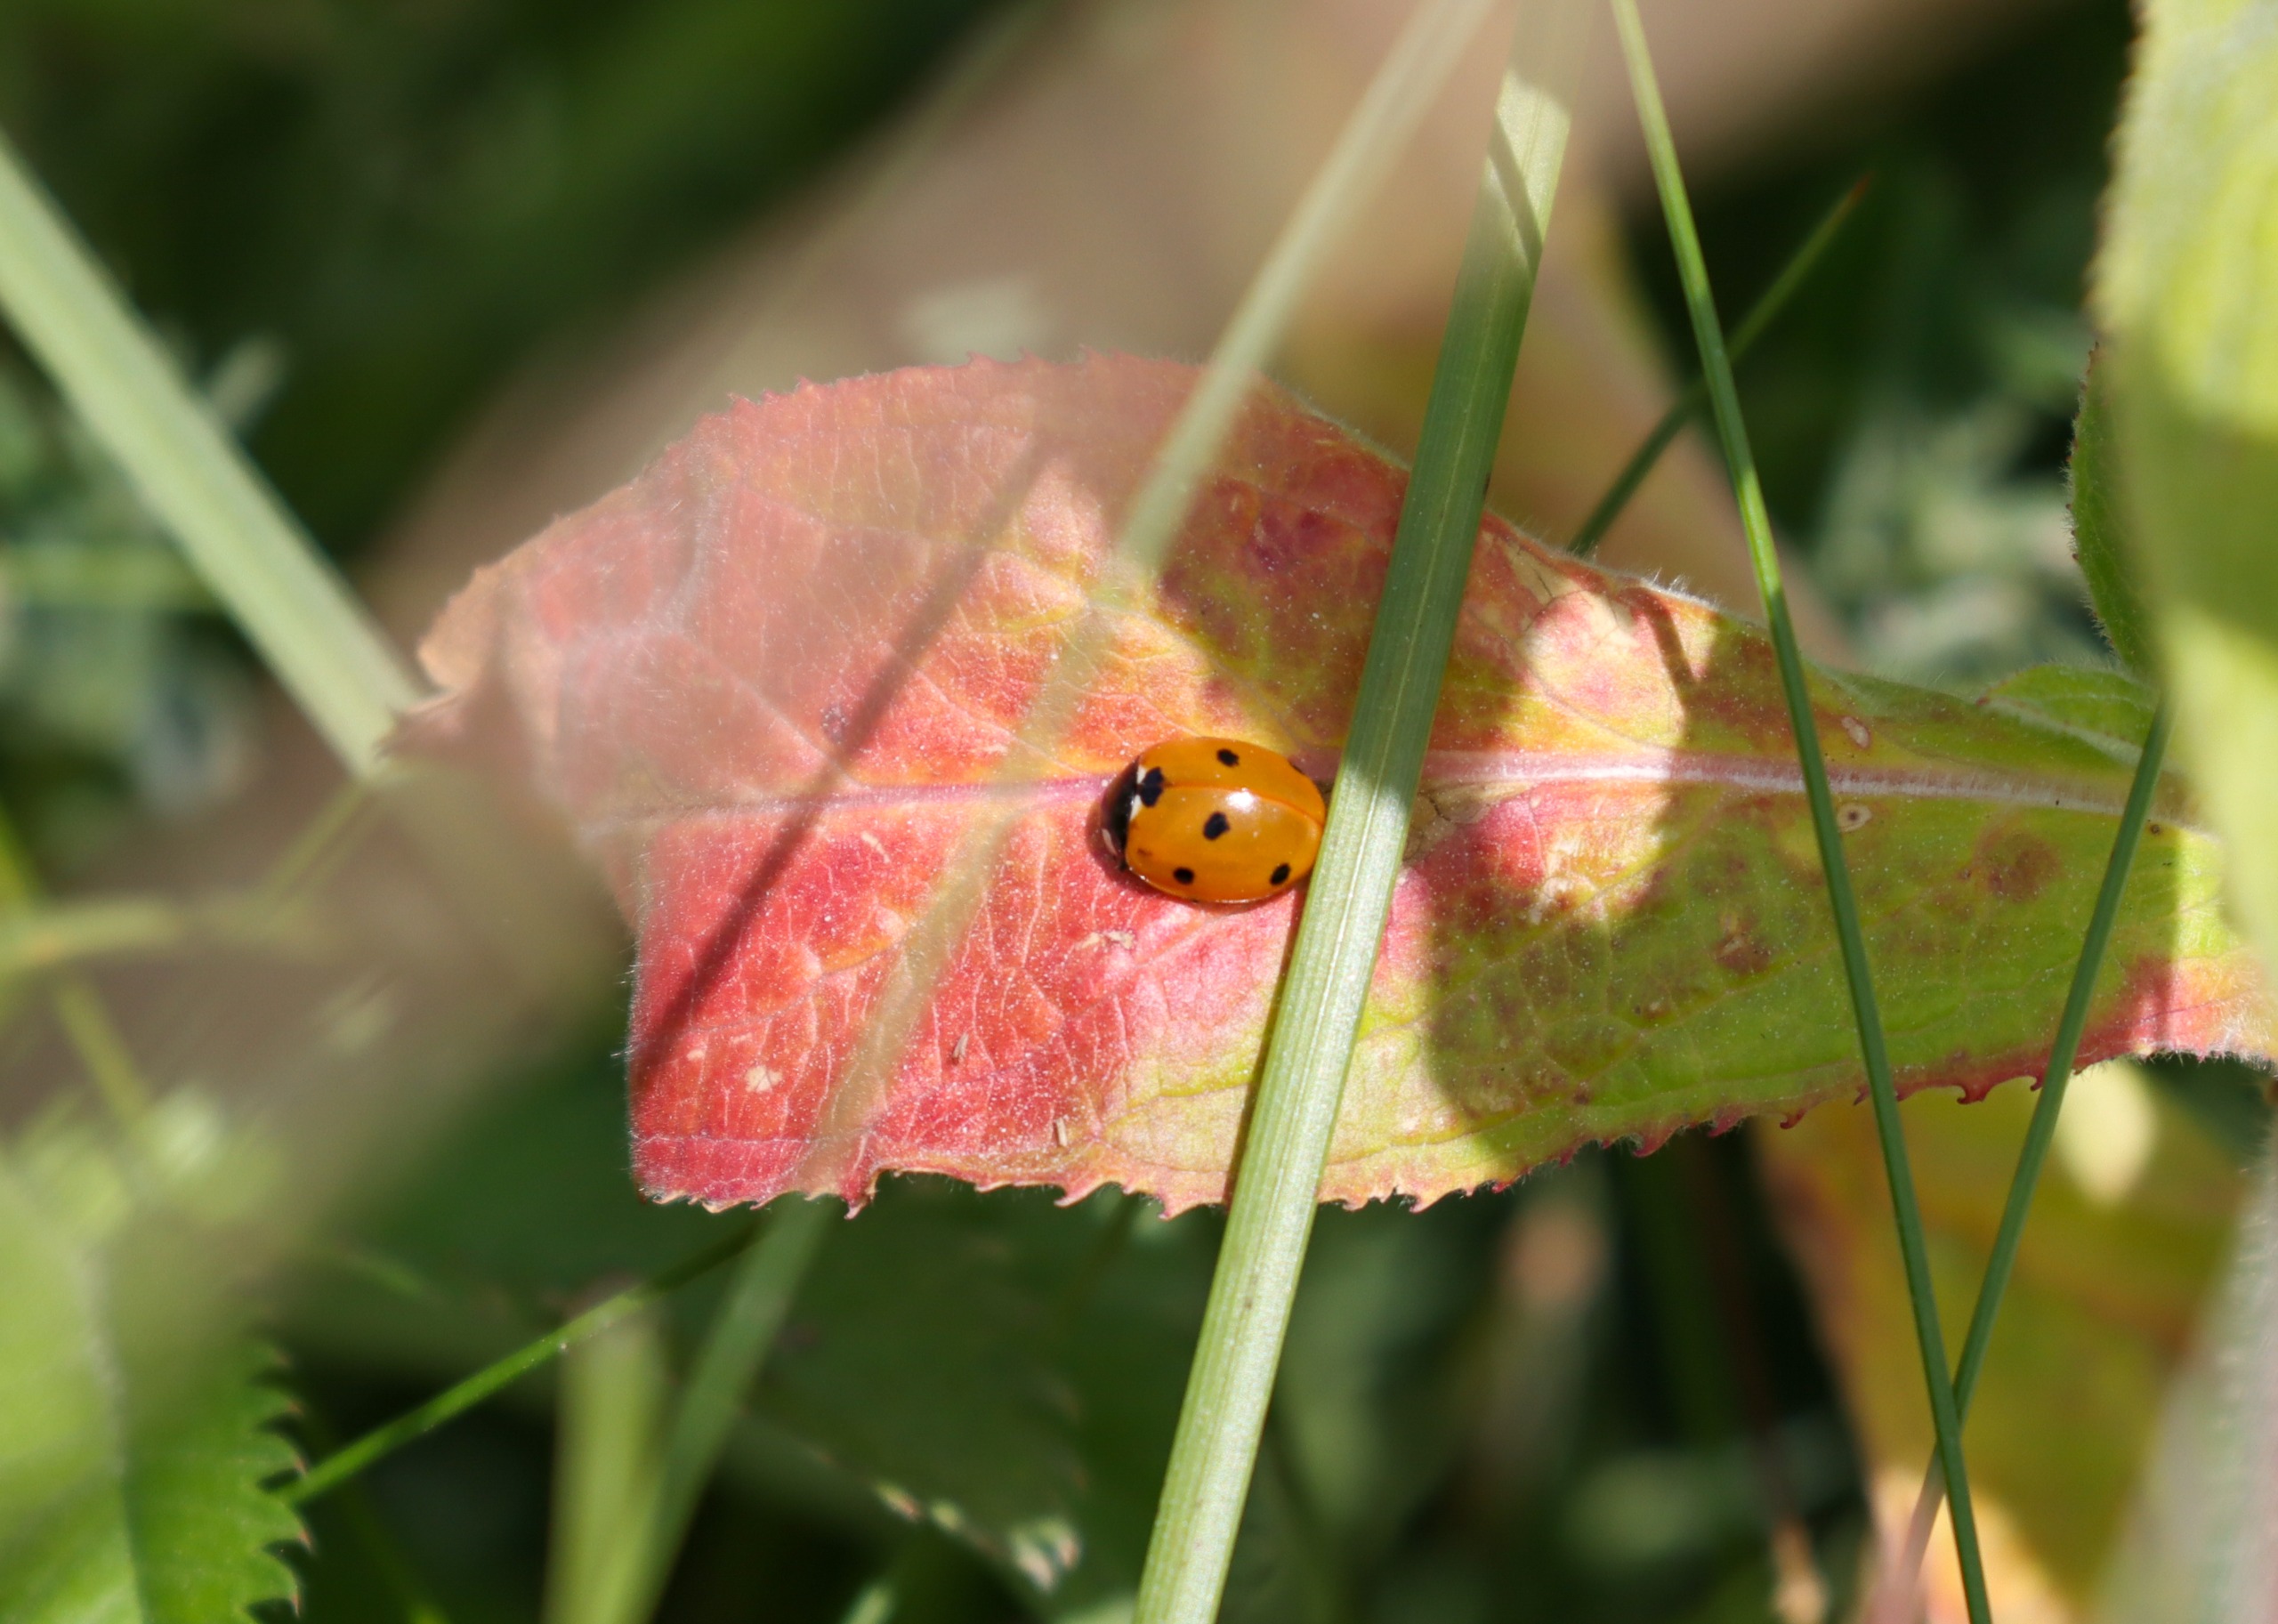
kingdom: Animalia
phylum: Arthropoda
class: Insecta
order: Coleoptera
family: Coccinellidae
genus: Coccinella
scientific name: Coccinella septempunctata
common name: Syvplettet mariehøne
